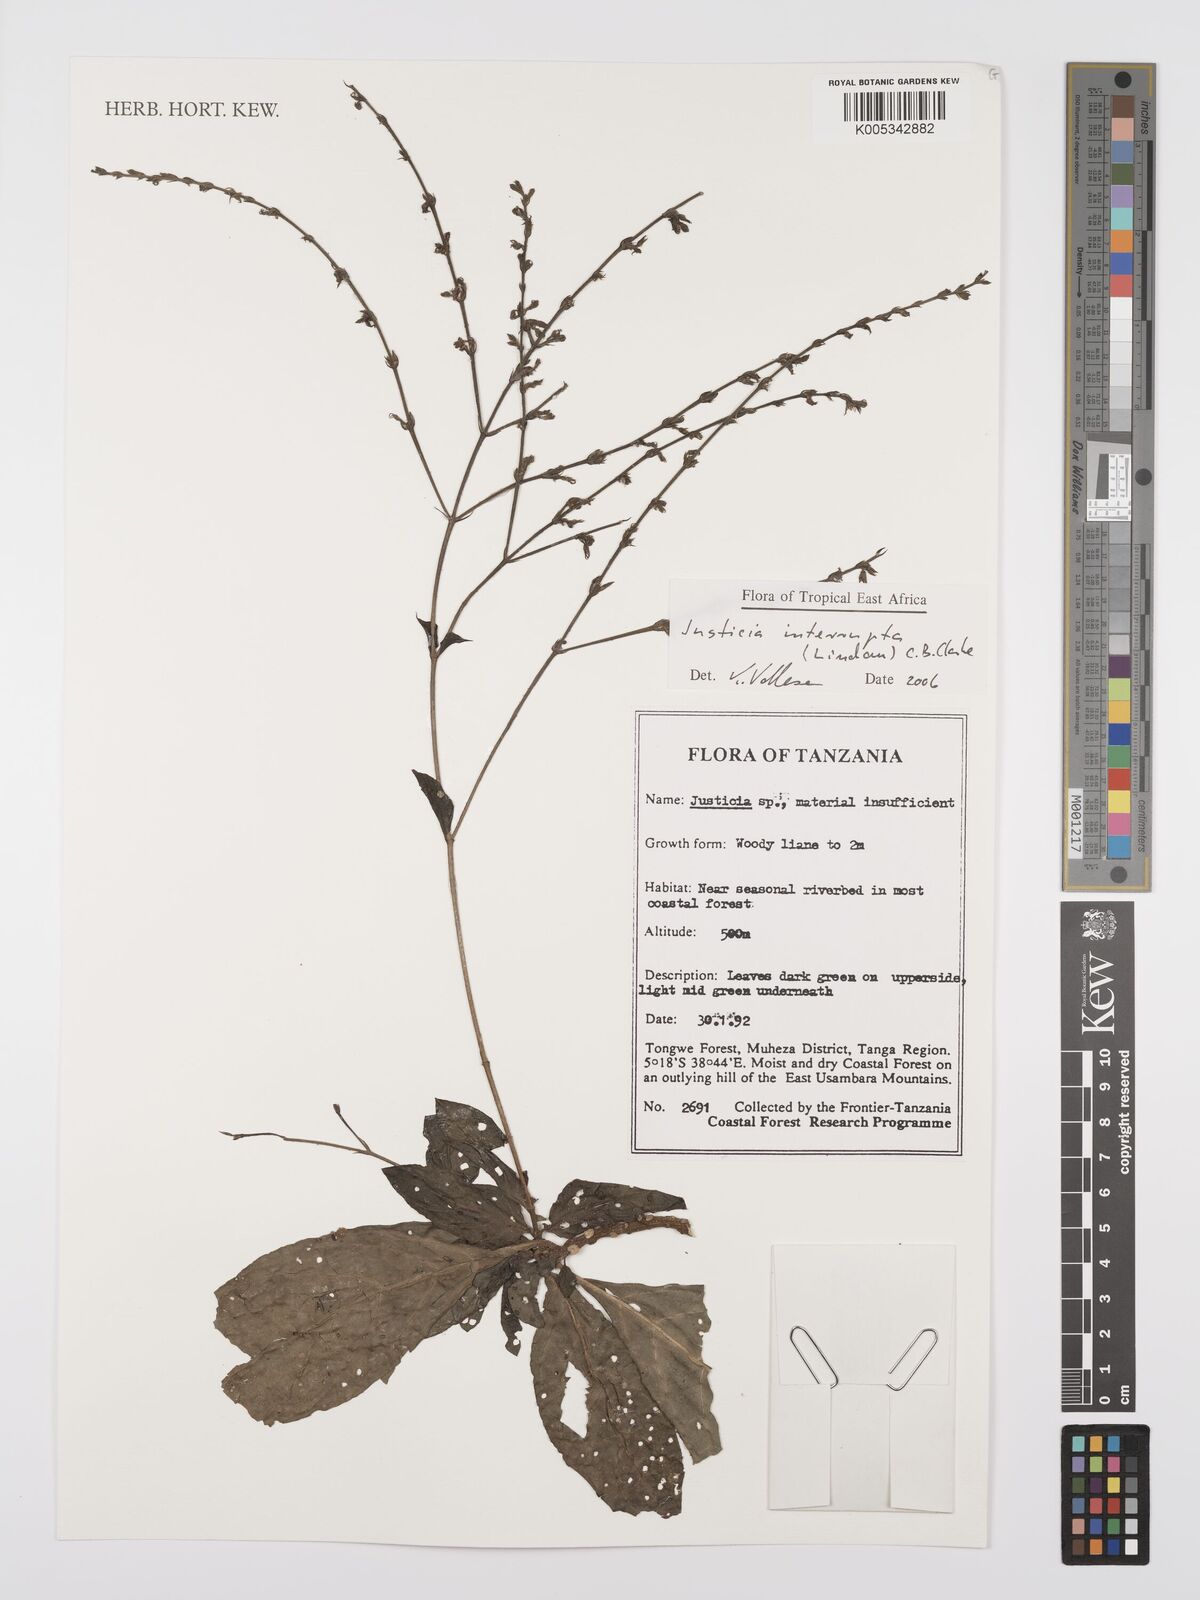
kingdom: Plantae
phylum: Tracheophyta
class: Magnoliopsida
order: Lamiales
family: Acanthaceae
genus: Justicia
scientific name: Justicia plectranthoides
